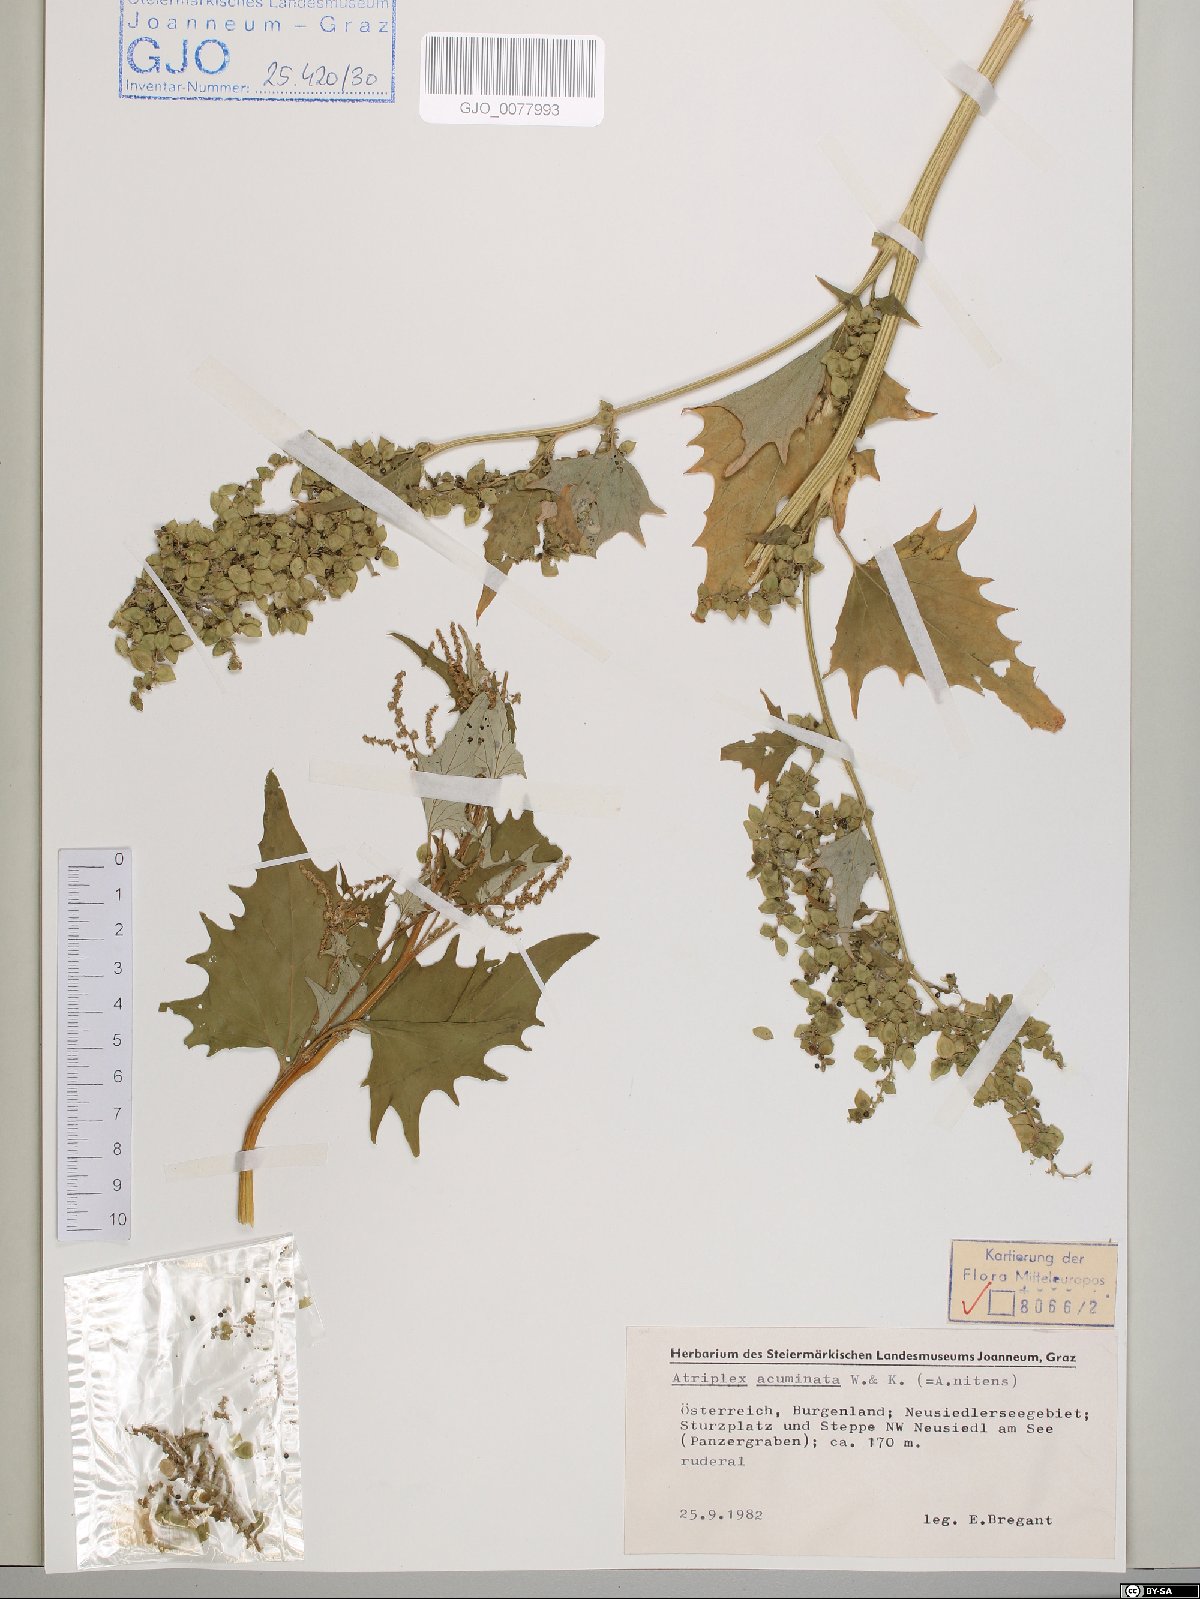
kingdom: Plantae
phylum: Tracheophyta
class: Magnoliopsida
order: Caryophyllales
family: Amaranthaceae
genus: Atriplex
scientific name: Atriplex sagittata
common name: Purple orache
